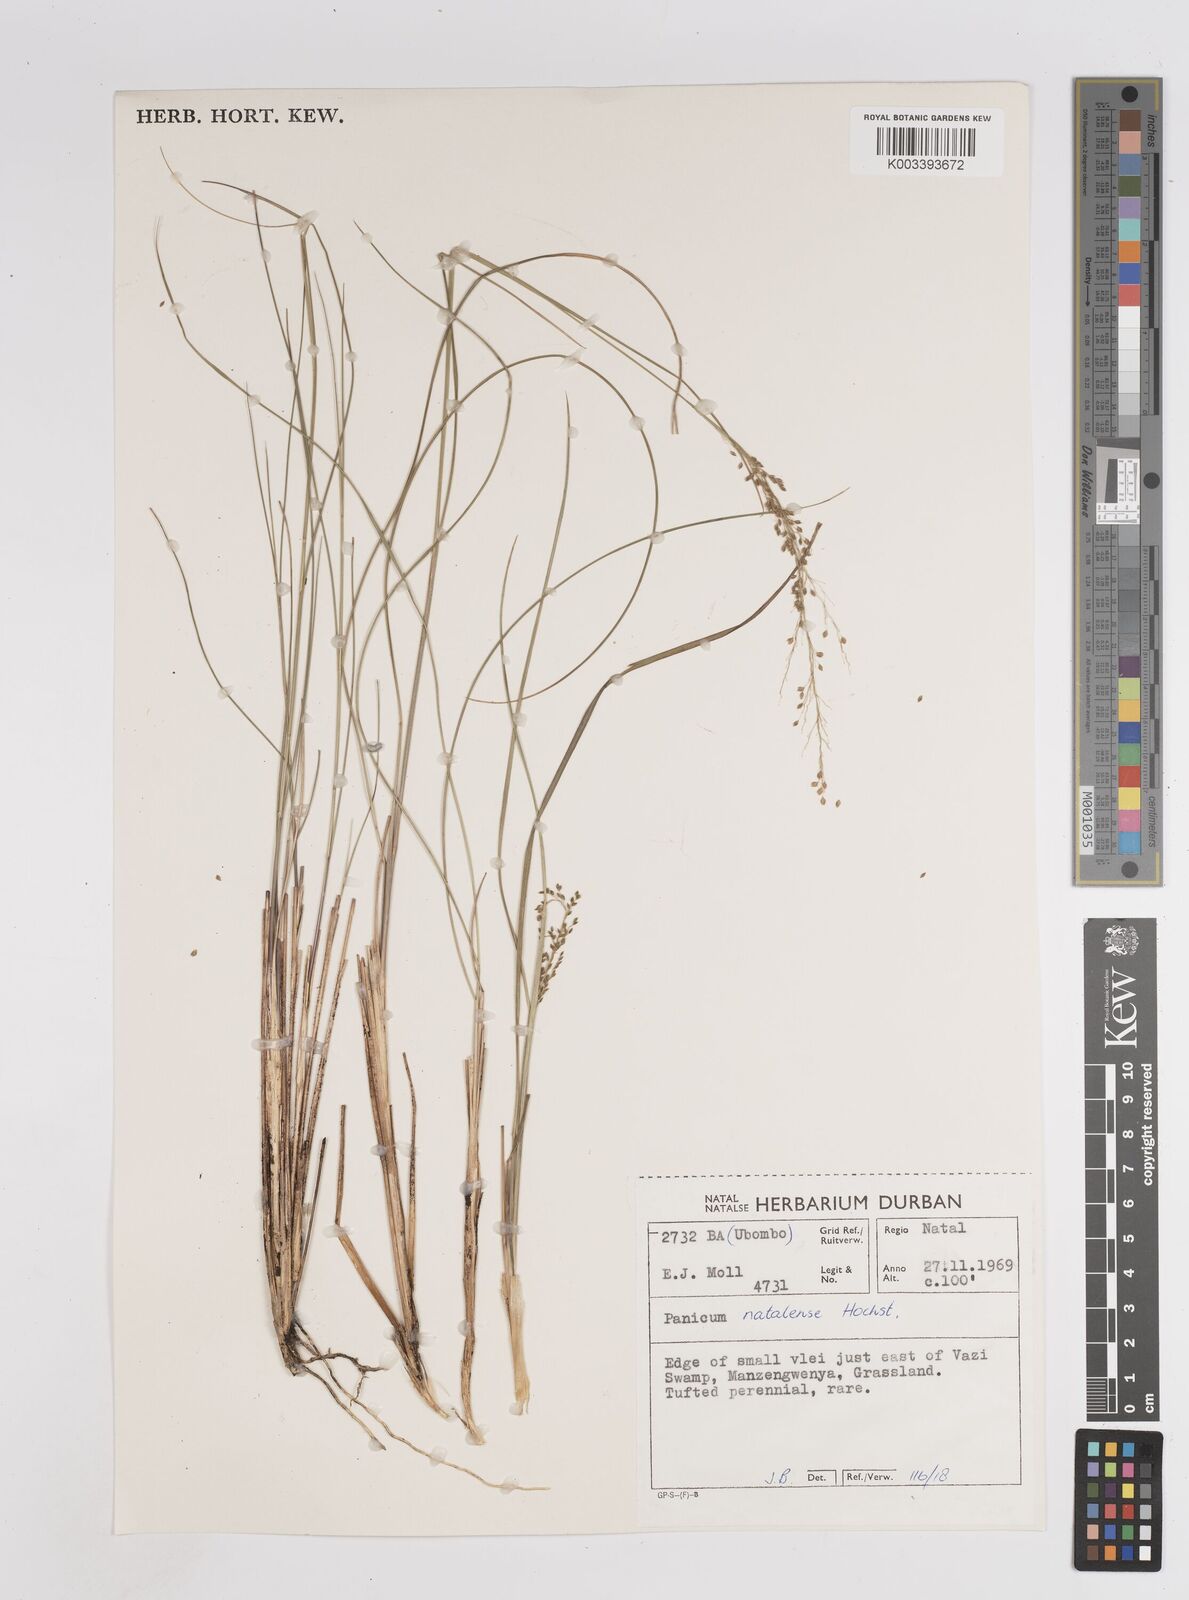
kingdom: Plantae
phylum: Tracheophyta
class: Liliopsida
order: Poales
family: Poaceae
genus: Trichanthecium
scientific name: Trichanthecium natalense
